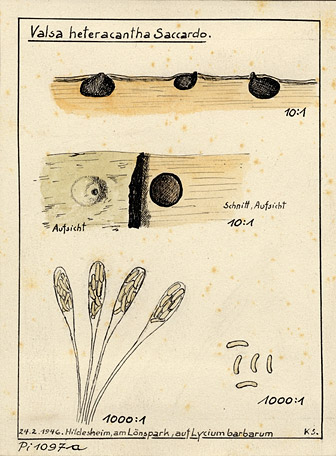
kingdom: Plantae
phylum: Tracheophyta
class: Magnoliopsida
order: Solanales
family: Solanaceae
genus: Lycium
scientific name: Lycium barbarum
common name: Duke of argyll's teaplant
